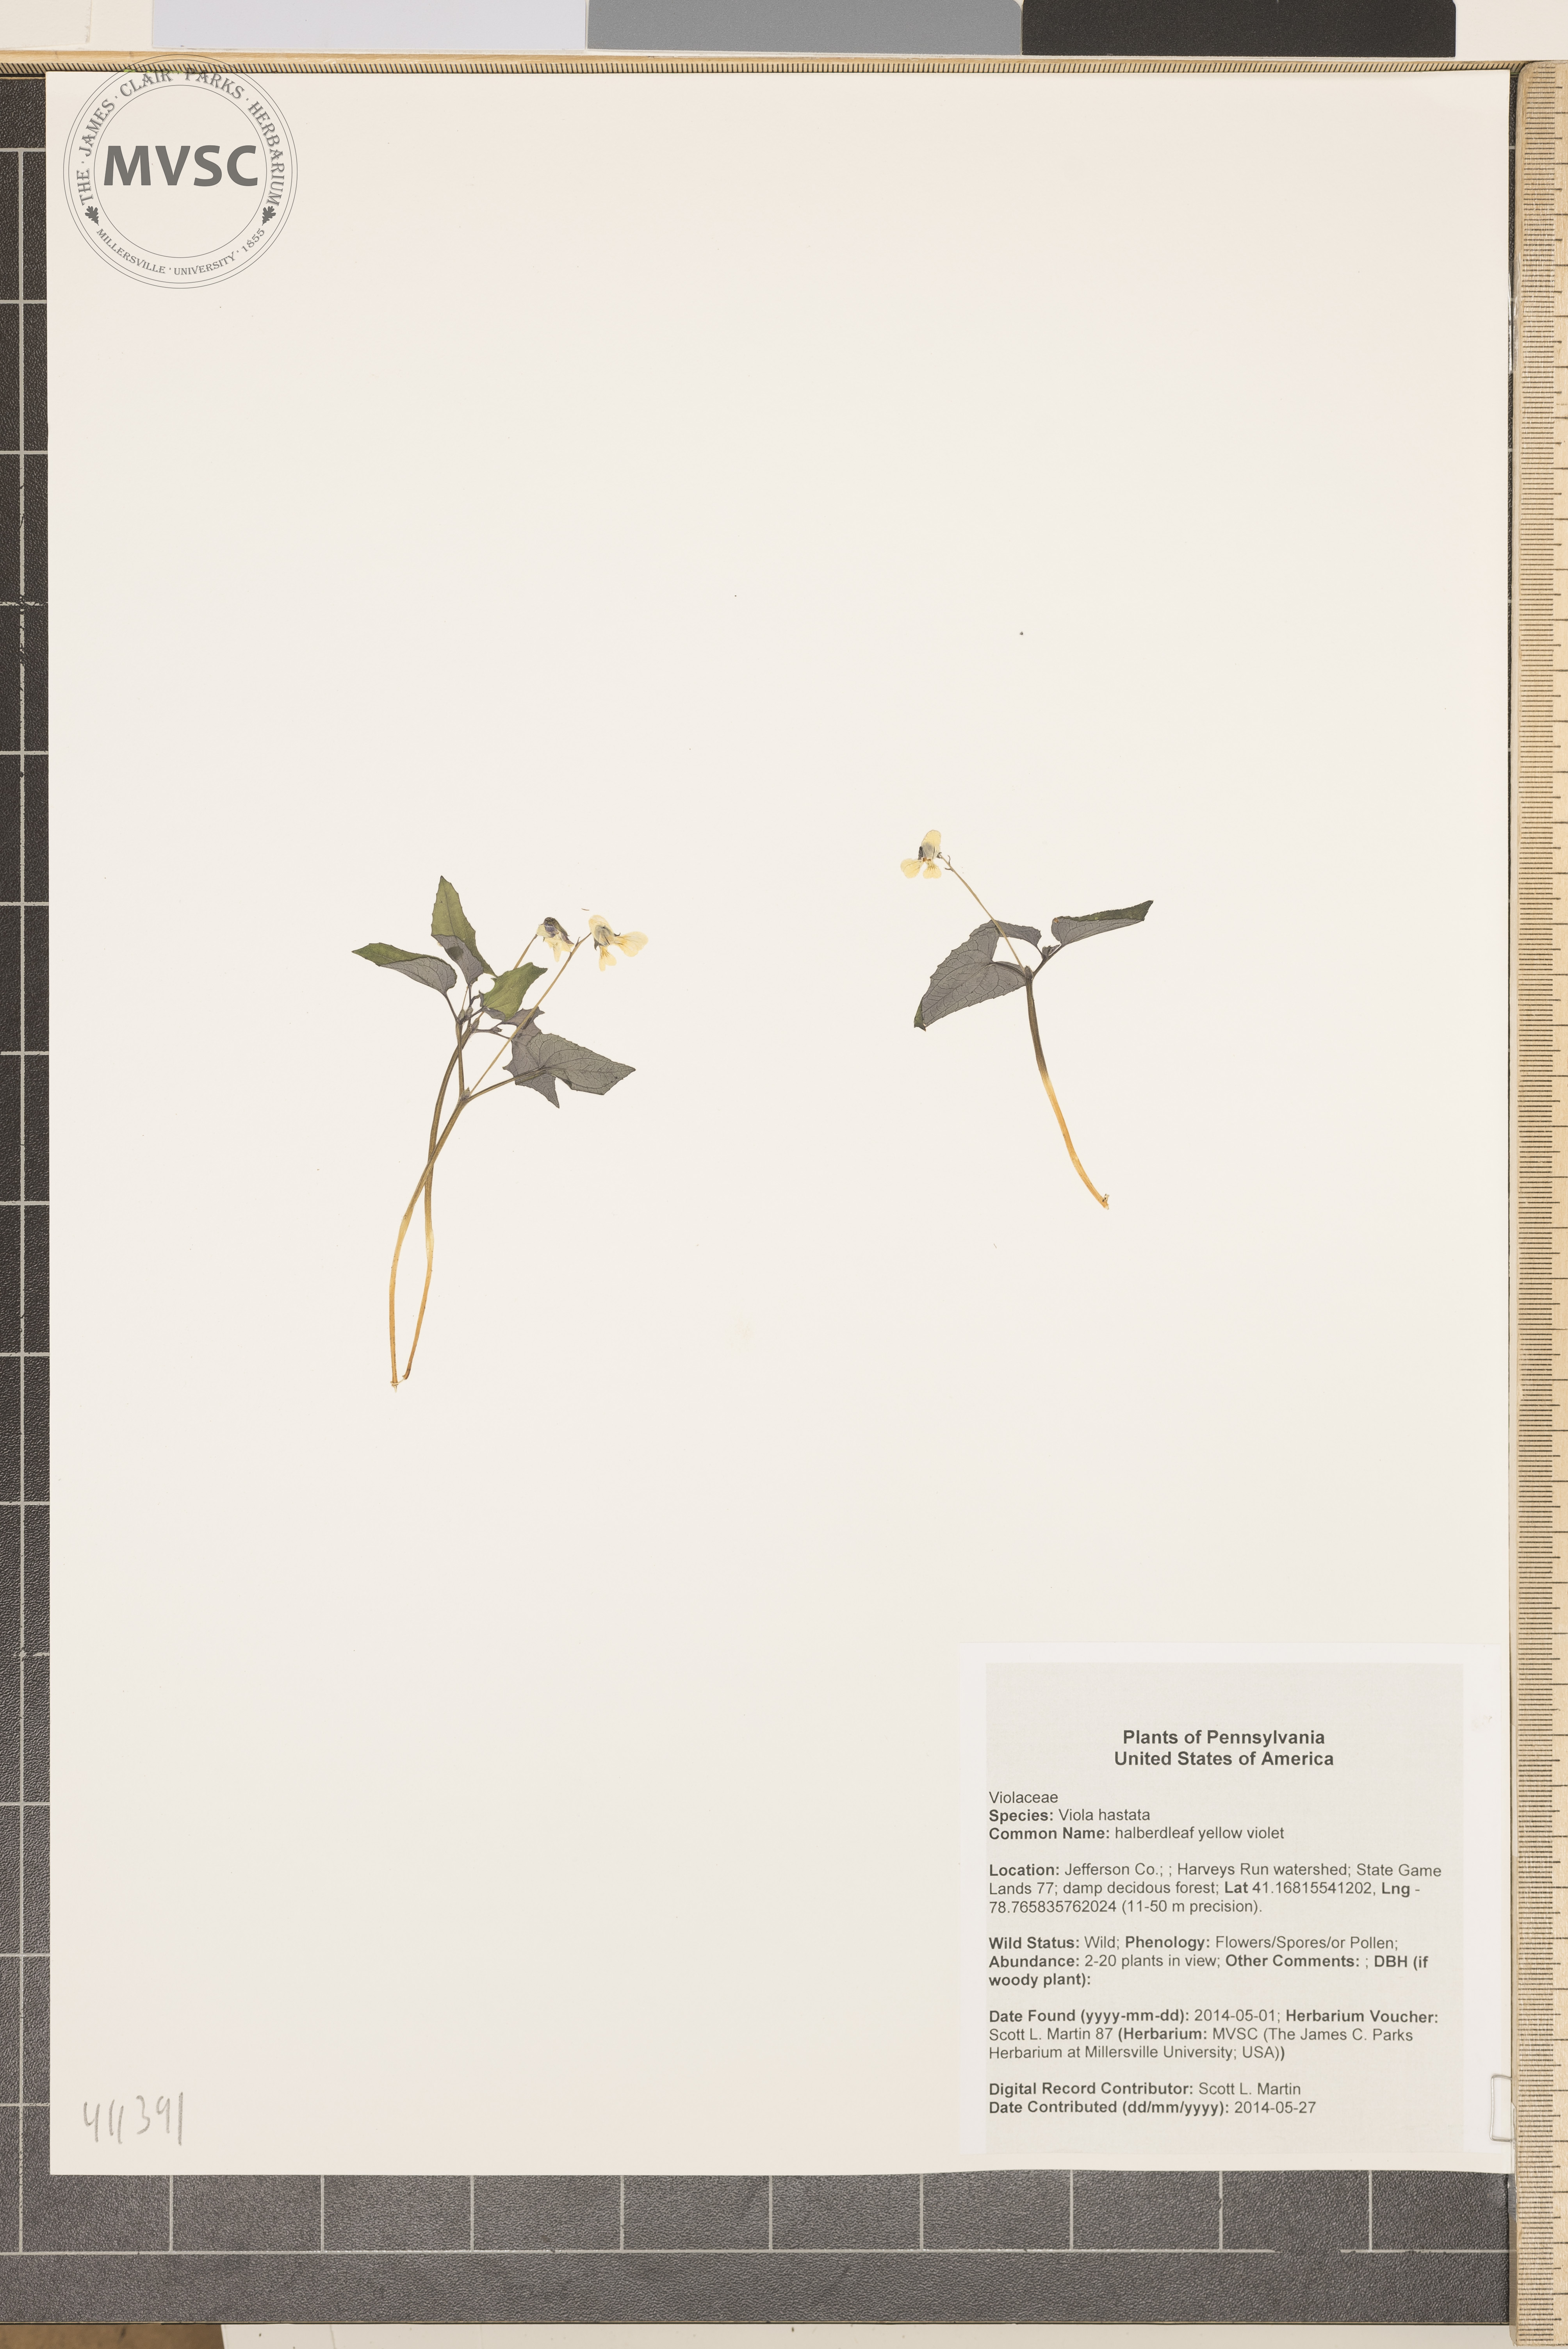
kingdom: Plantae
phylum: Tracheophyta
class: Magnoliopsida
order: Malpighiales
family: Violaceae
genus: Viola
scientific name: Viola hastata
